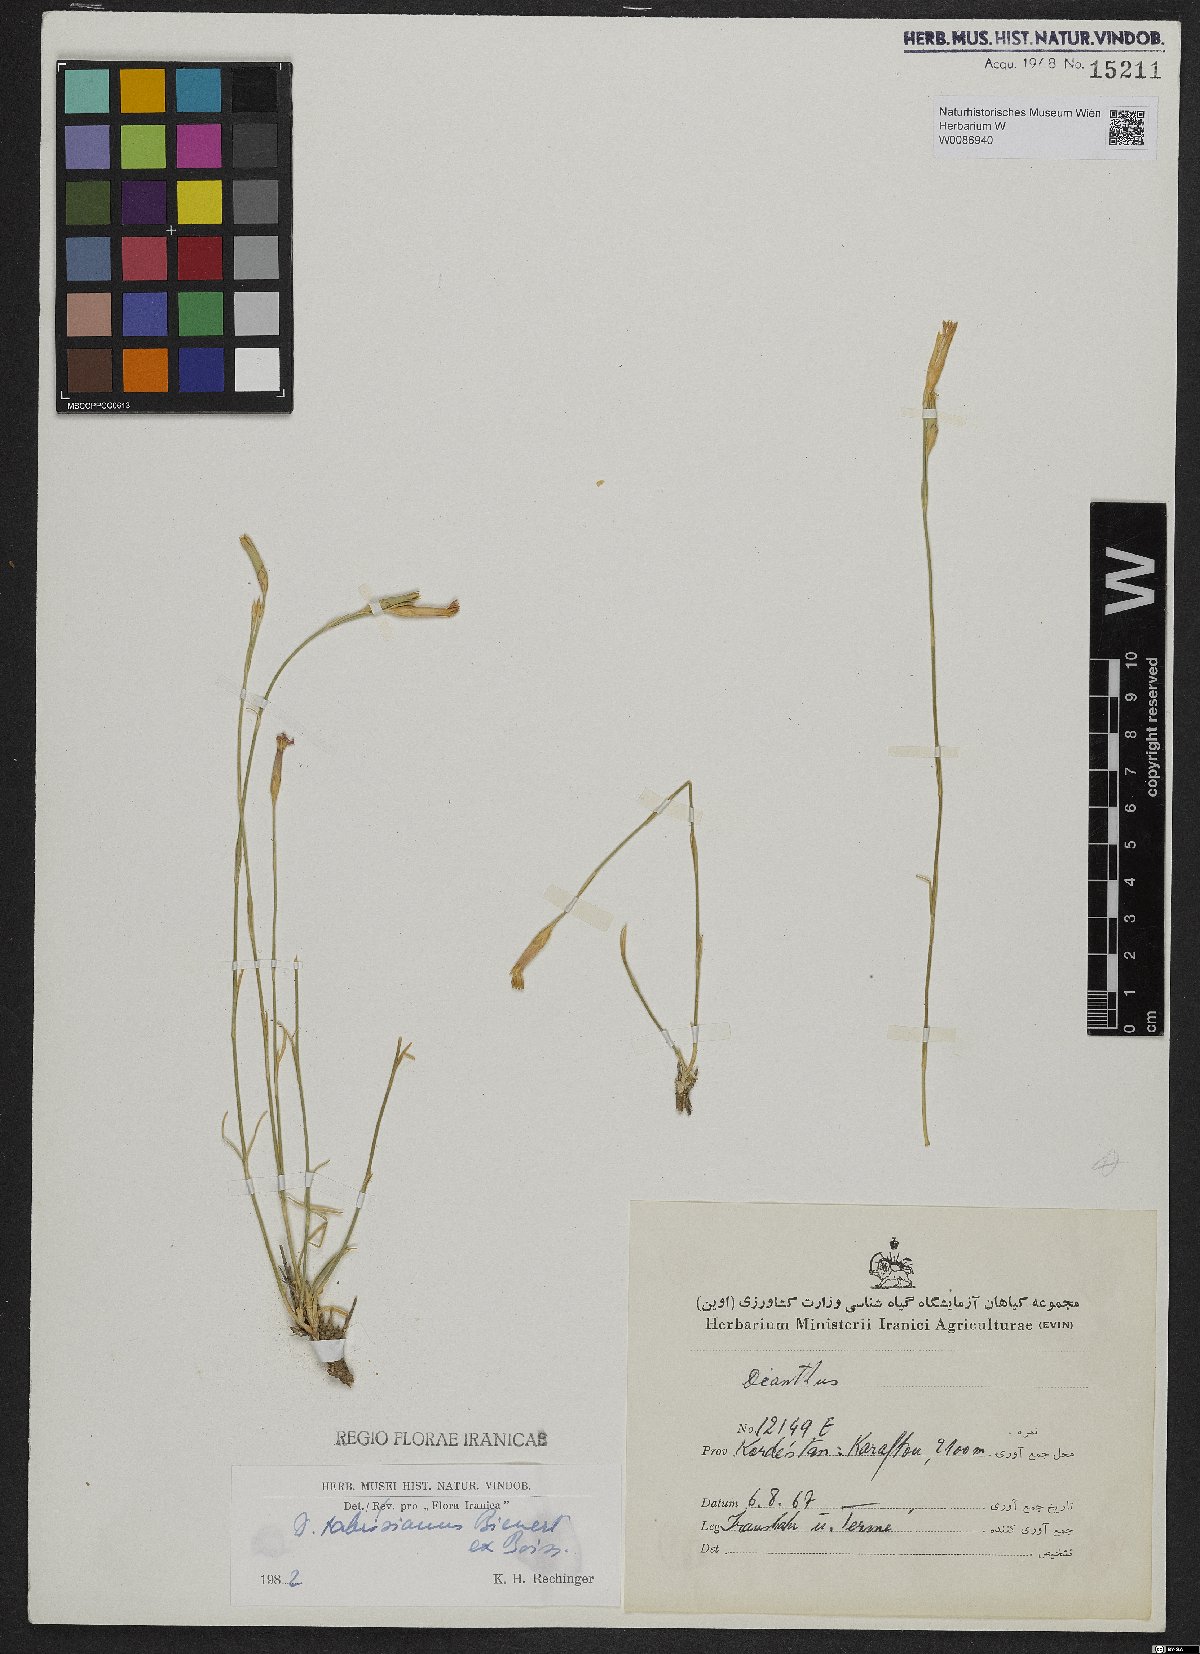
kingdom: Plantae
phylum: Tracheophyta
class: Magnoliopsida
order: Caryophyllales
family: Caryophyllaceae
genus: Dianthus
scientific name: Dianthus tabrisianus
